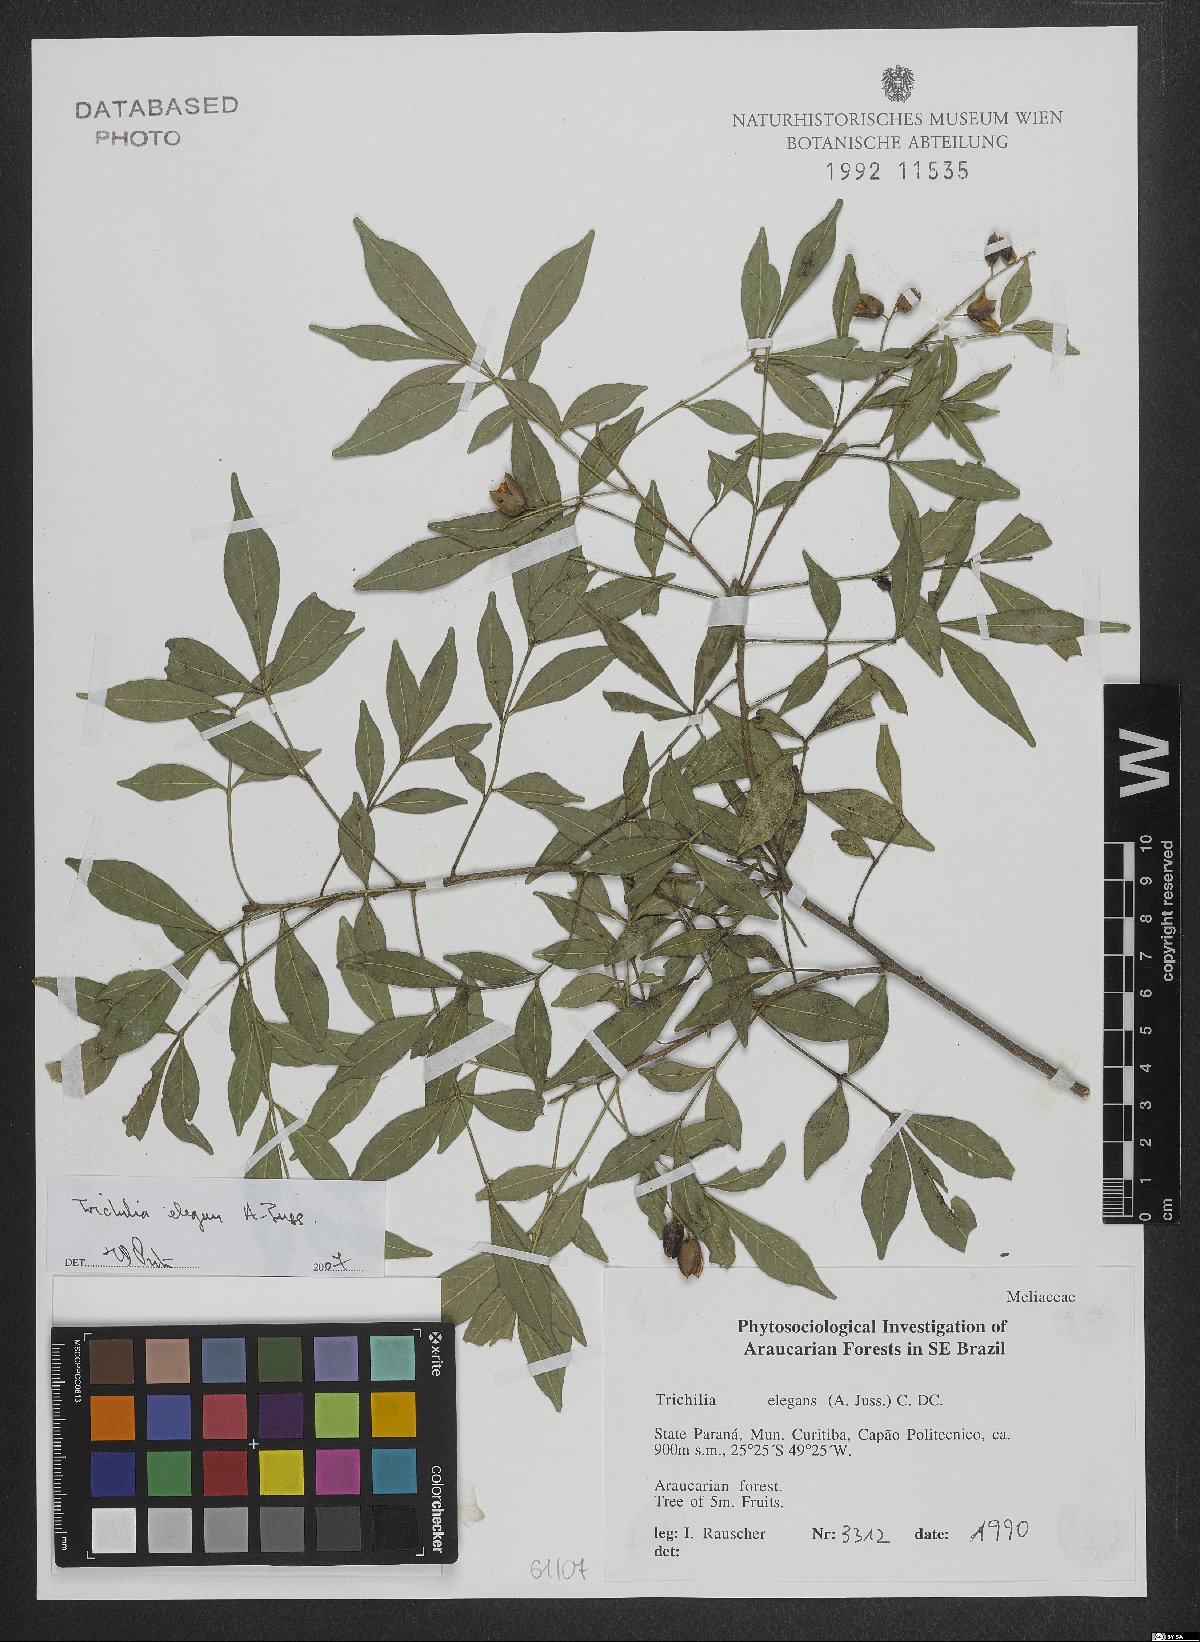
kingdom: Plantae
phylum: Tracheophyta
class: Magnoliopsida
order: Sapindales
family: Meliaceae
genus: Trichilia
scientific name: Trichilia elegans
